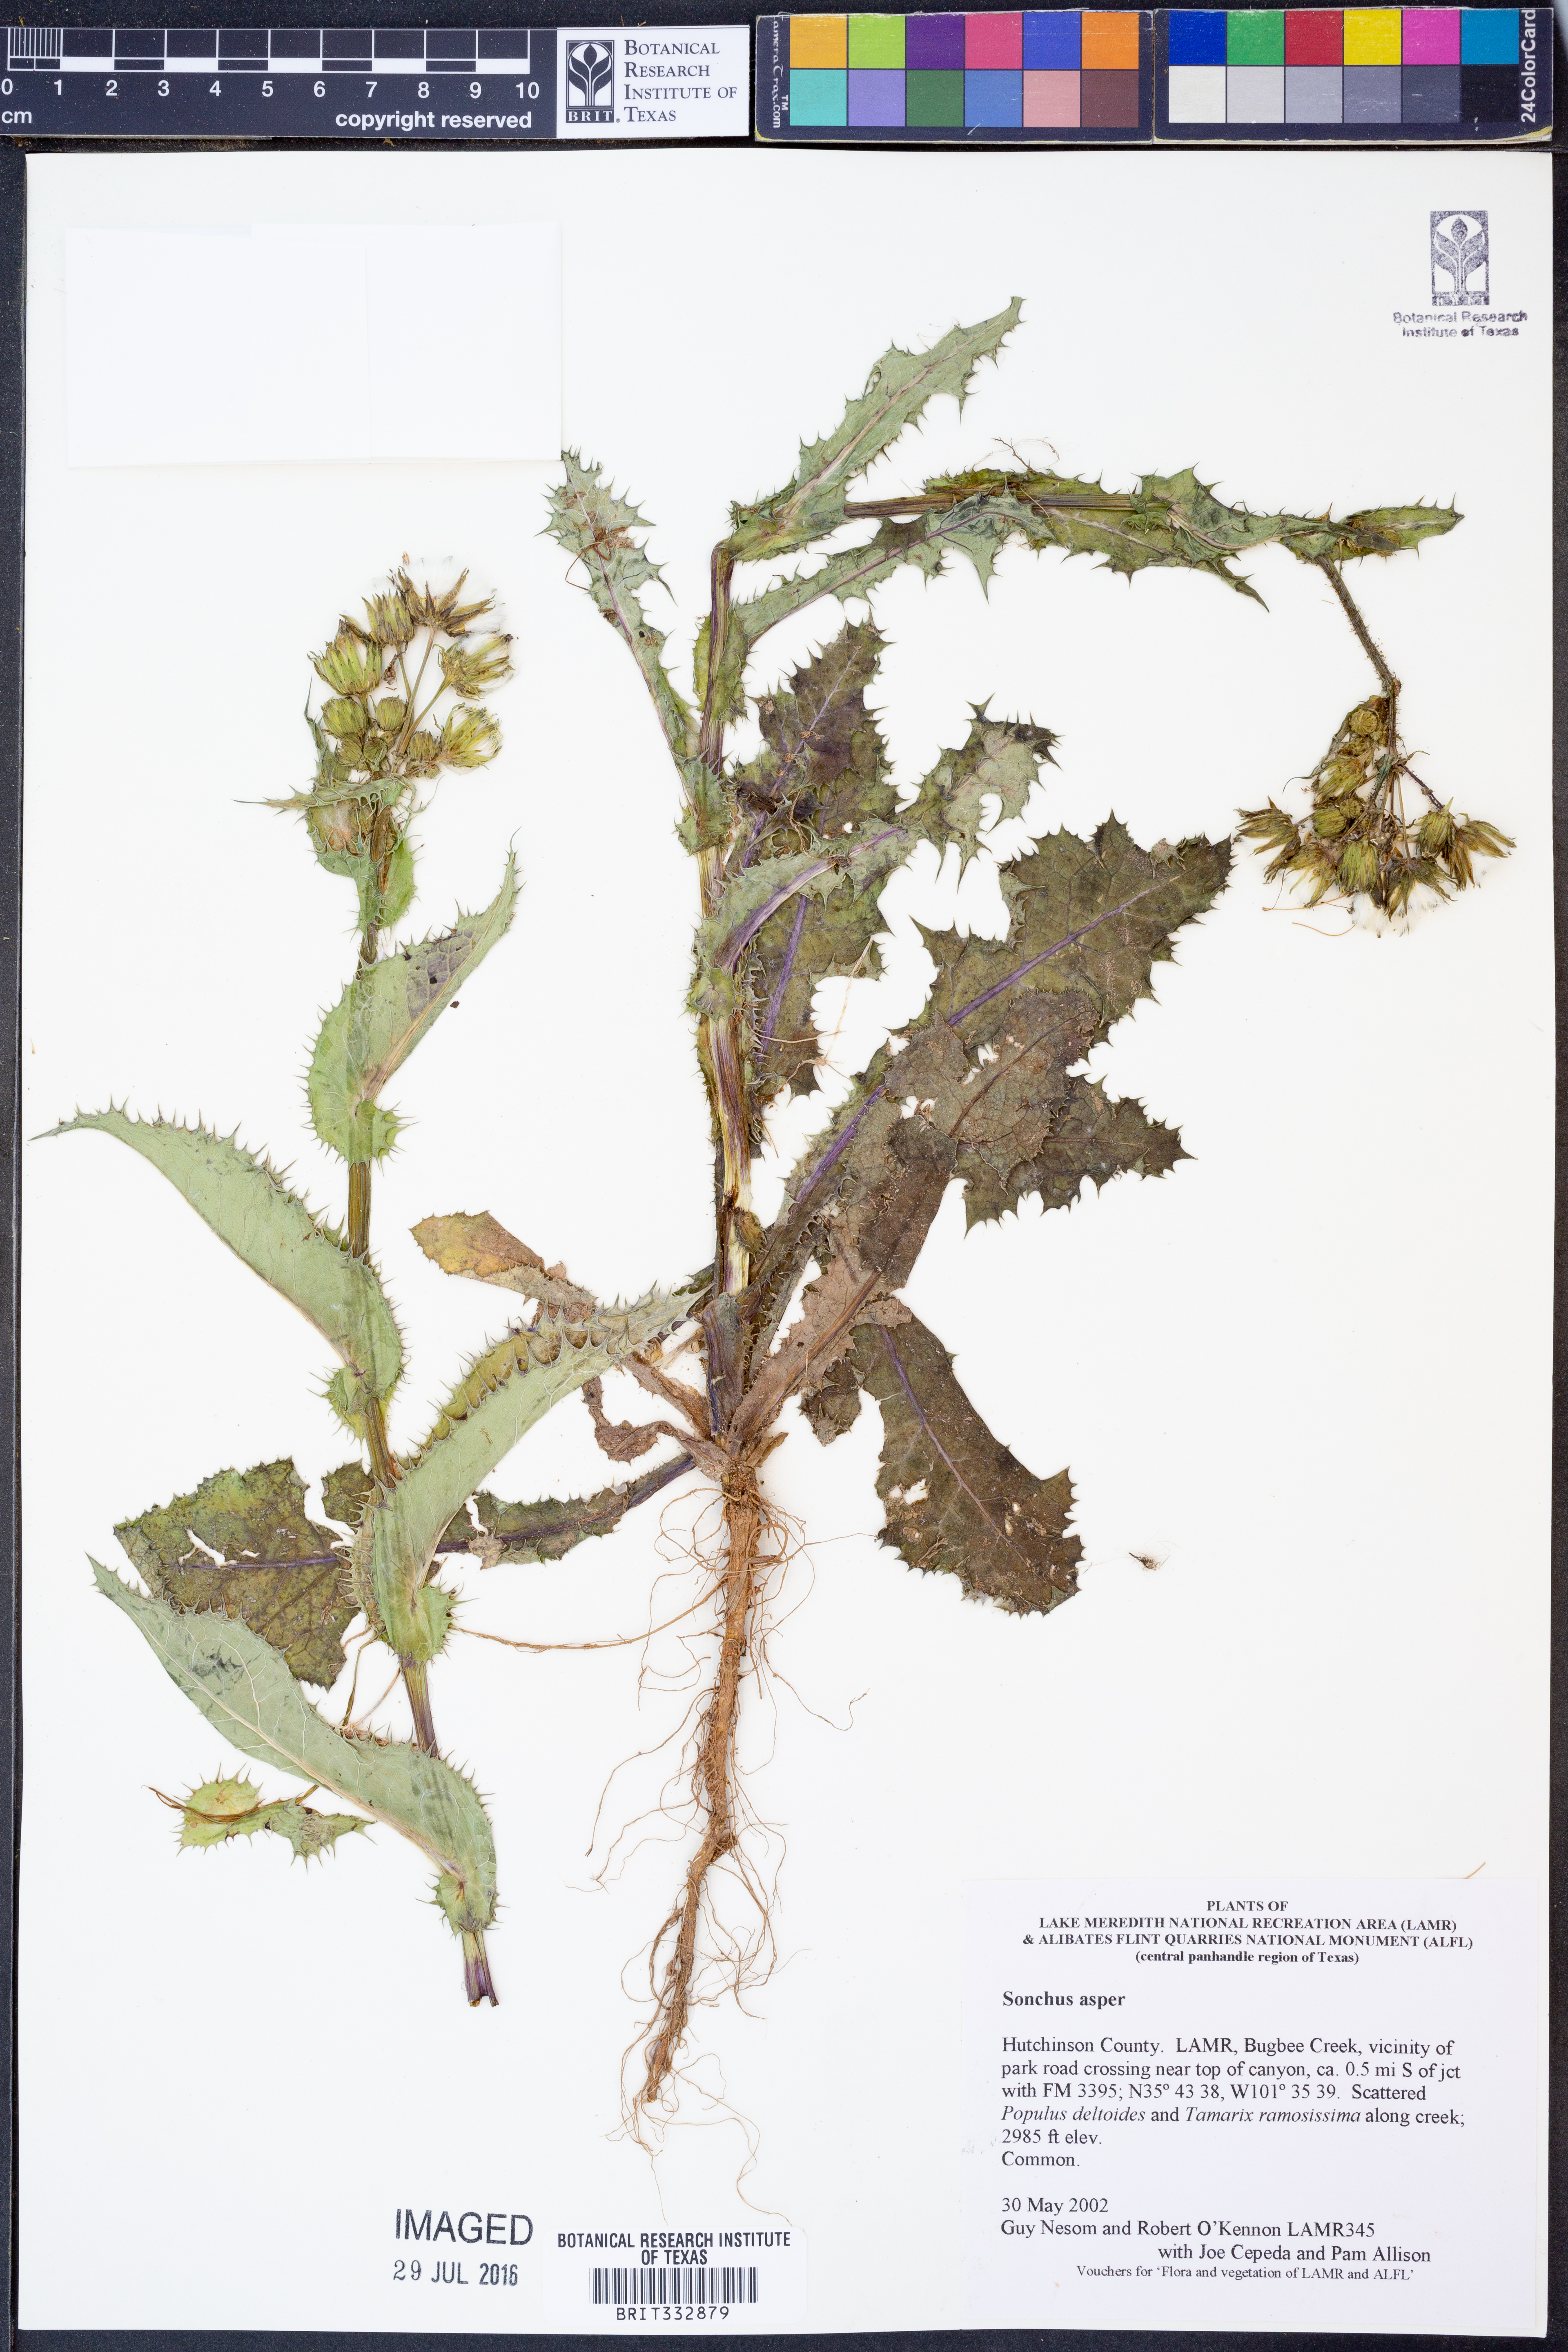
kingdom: Plantae
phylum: Tracheophyta
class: Magnoliopsida
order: Asterales
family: Asteraceae
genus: Sonchus
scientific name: Sonchus asper
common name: Prickly sow-thistle
